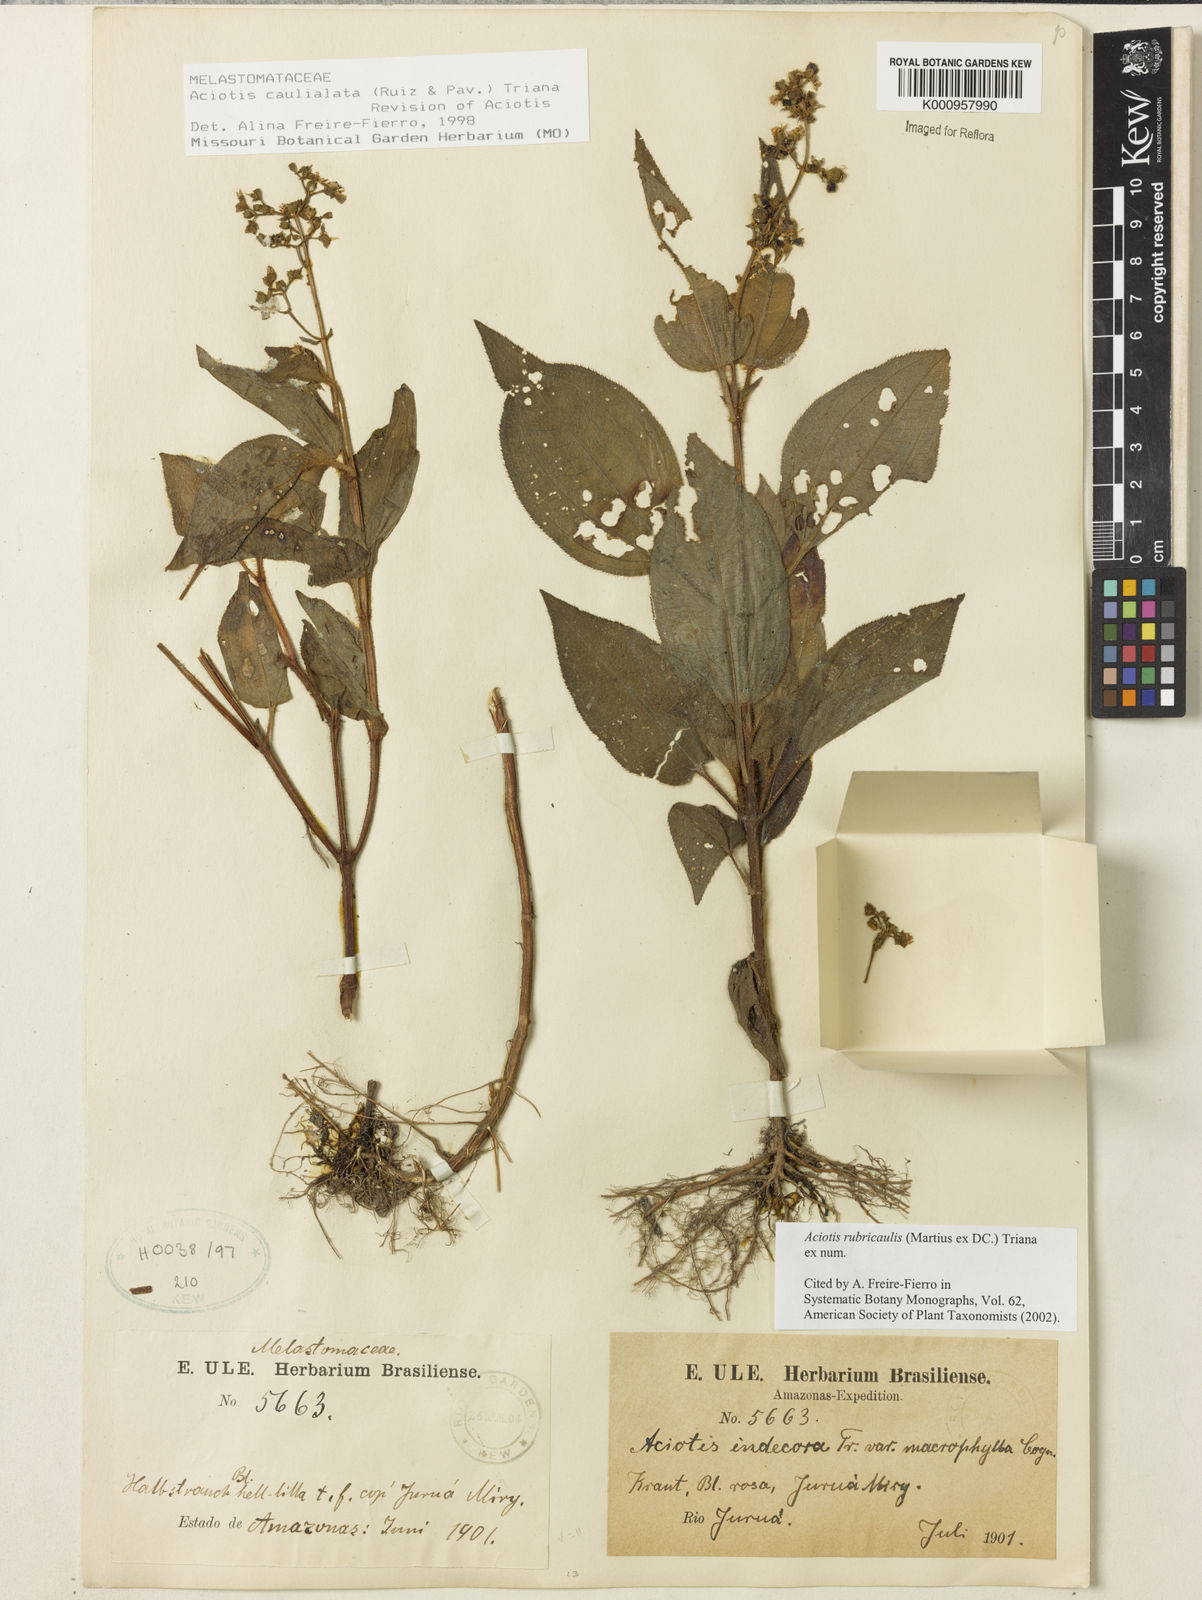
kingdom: Plantae
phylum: Tracheophyta
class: Magnoliopsida
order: Myrtales
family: Melastomataceae
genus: Aciotis
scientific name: Aciotis rubricaulis
